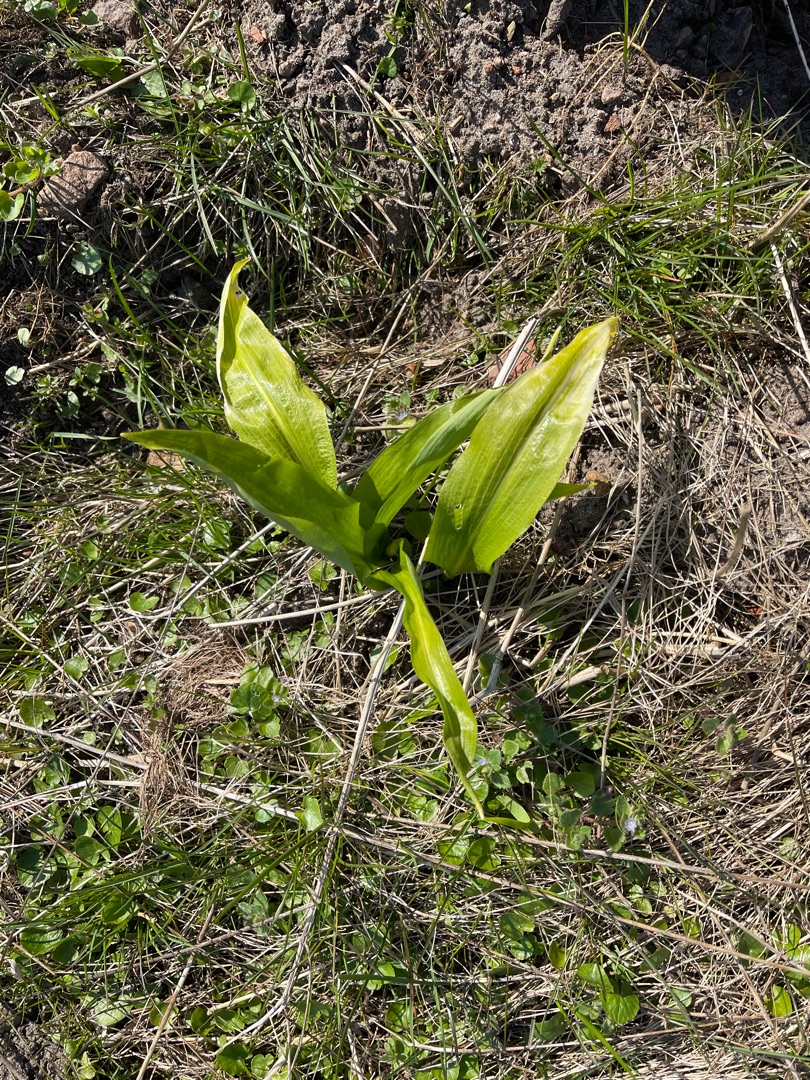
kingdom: Plantae
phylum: Tracheophyta
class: Liliopsida
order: Asparagales
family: Amaryllidaceae
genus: Allium
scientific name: Allium ursinum
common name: Rams-løg
